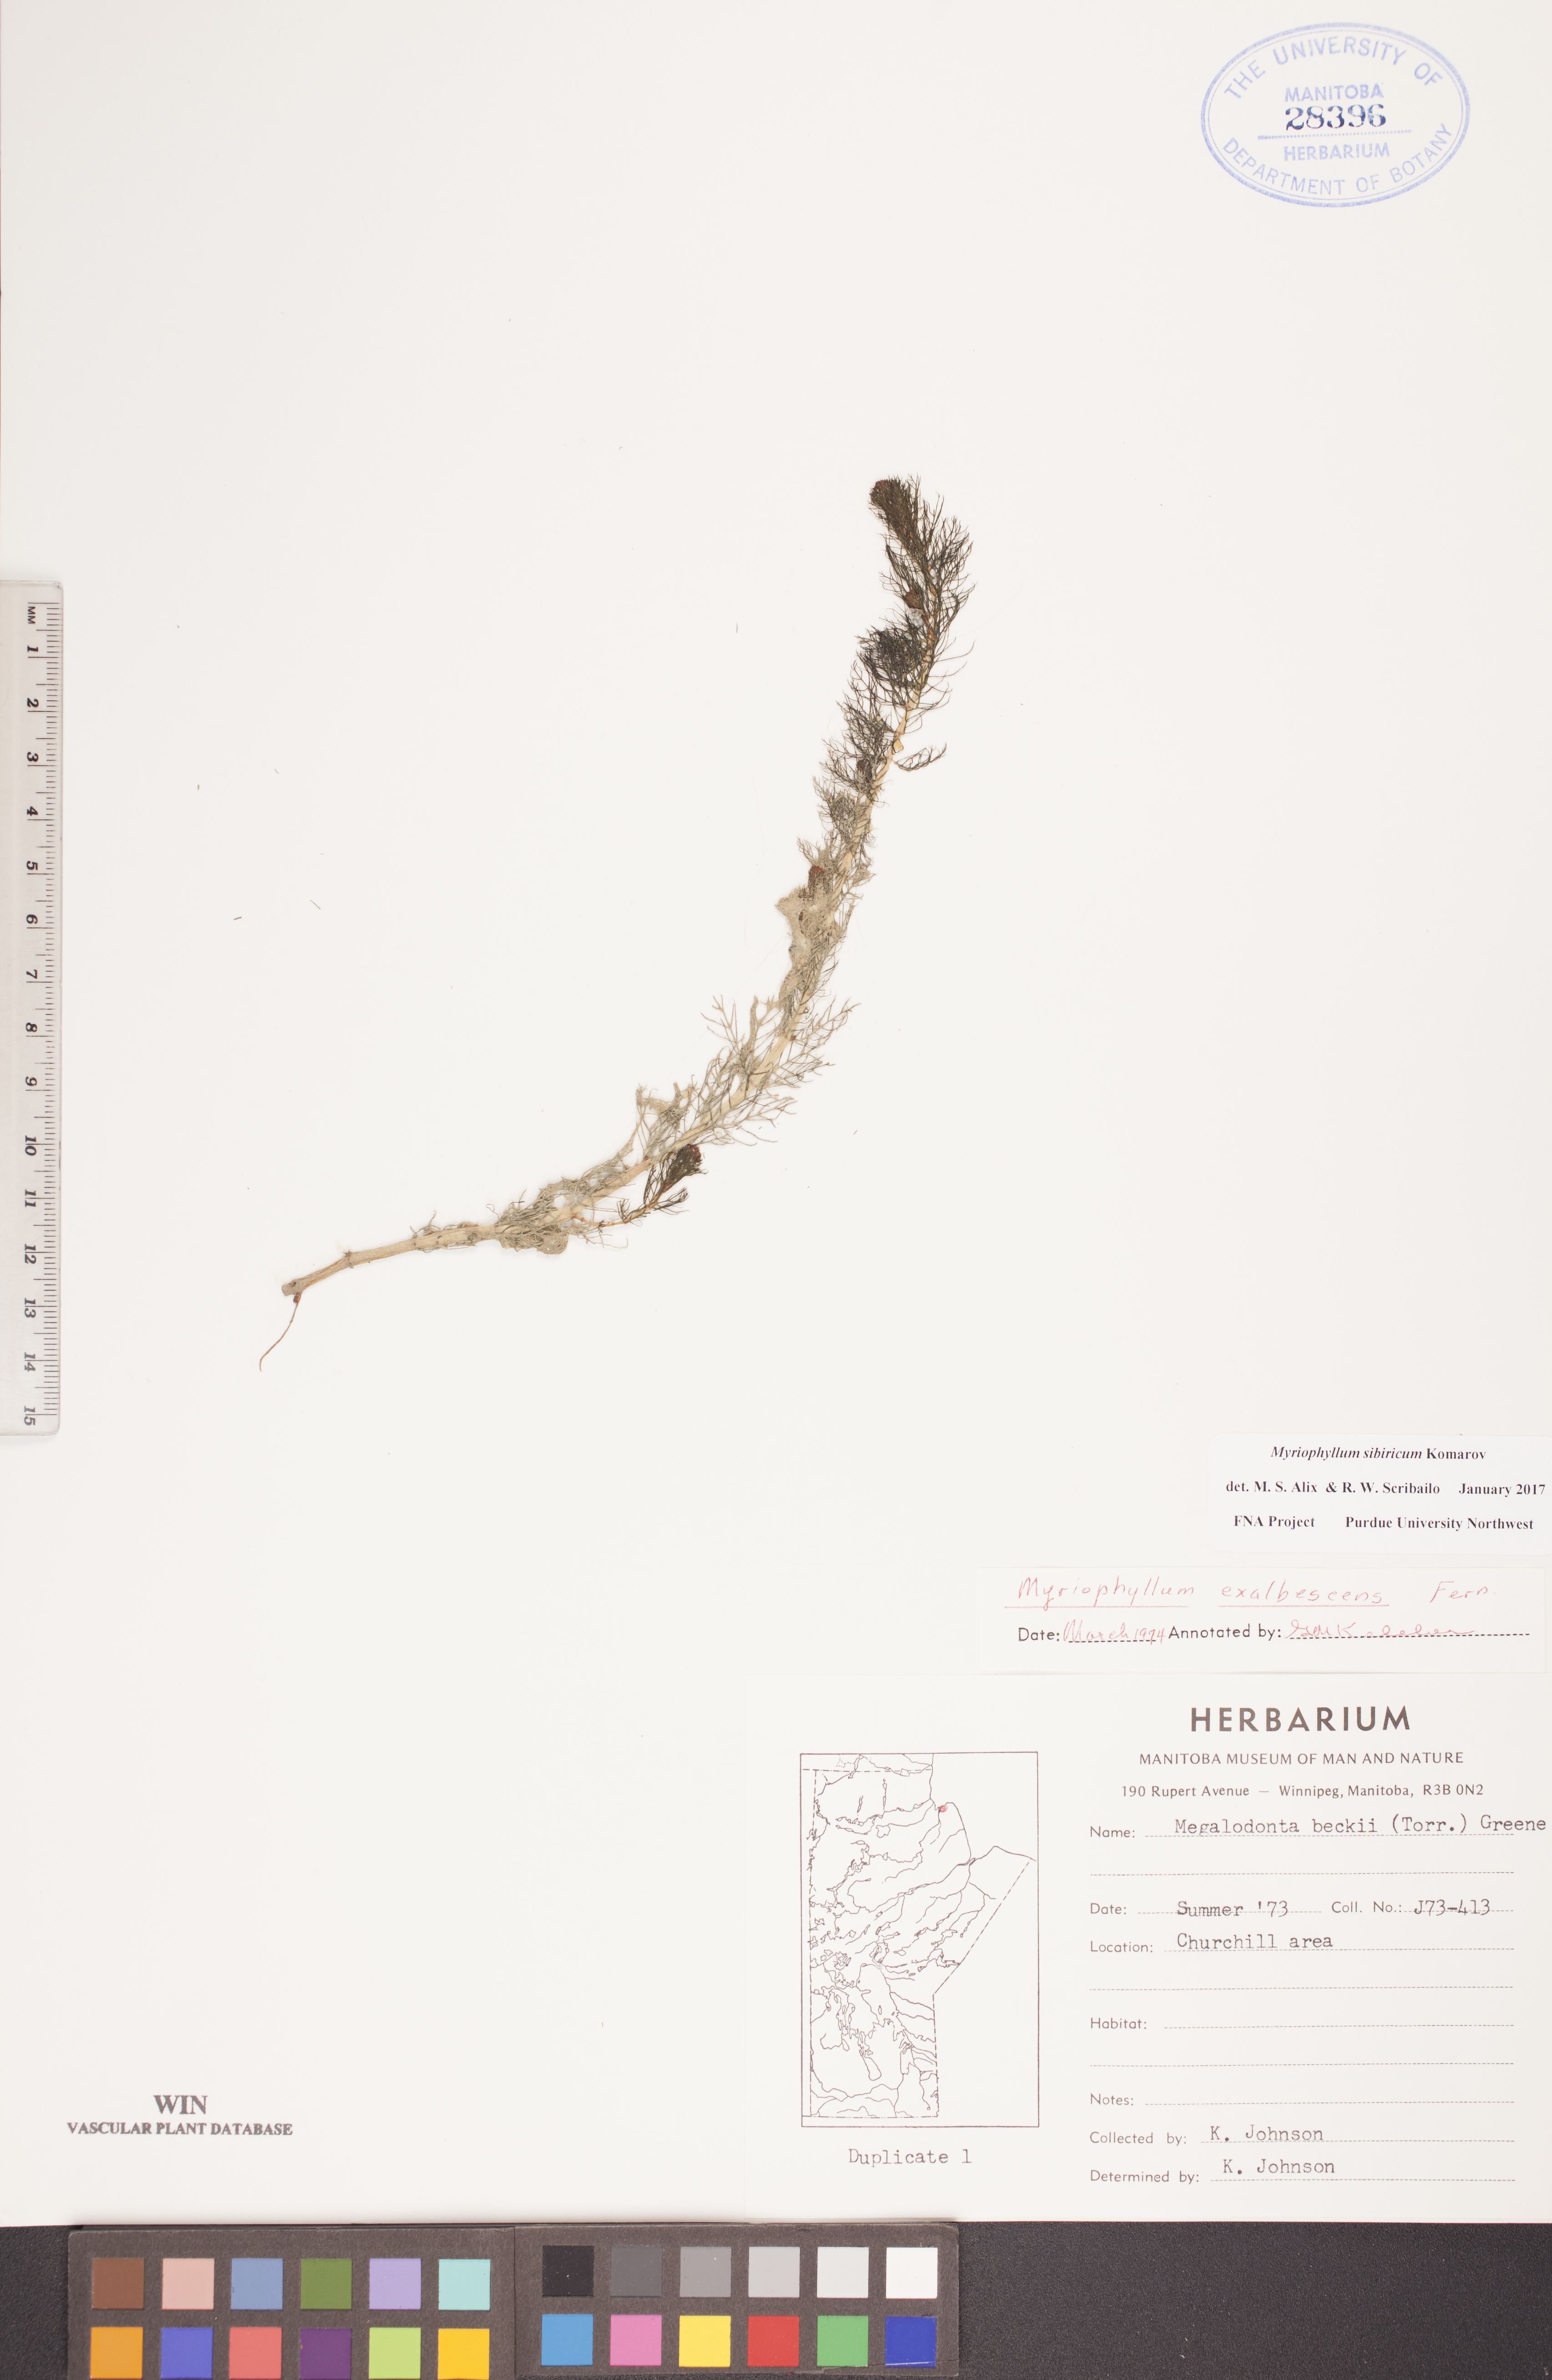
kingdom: Plantae
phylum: Tracheophyta
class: Magnoliopsida
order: Saxifragales
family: Haloragaceae
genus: Myriophyllum
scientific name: Myriophyllum sibiricum
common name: Siberian water-milfoil
